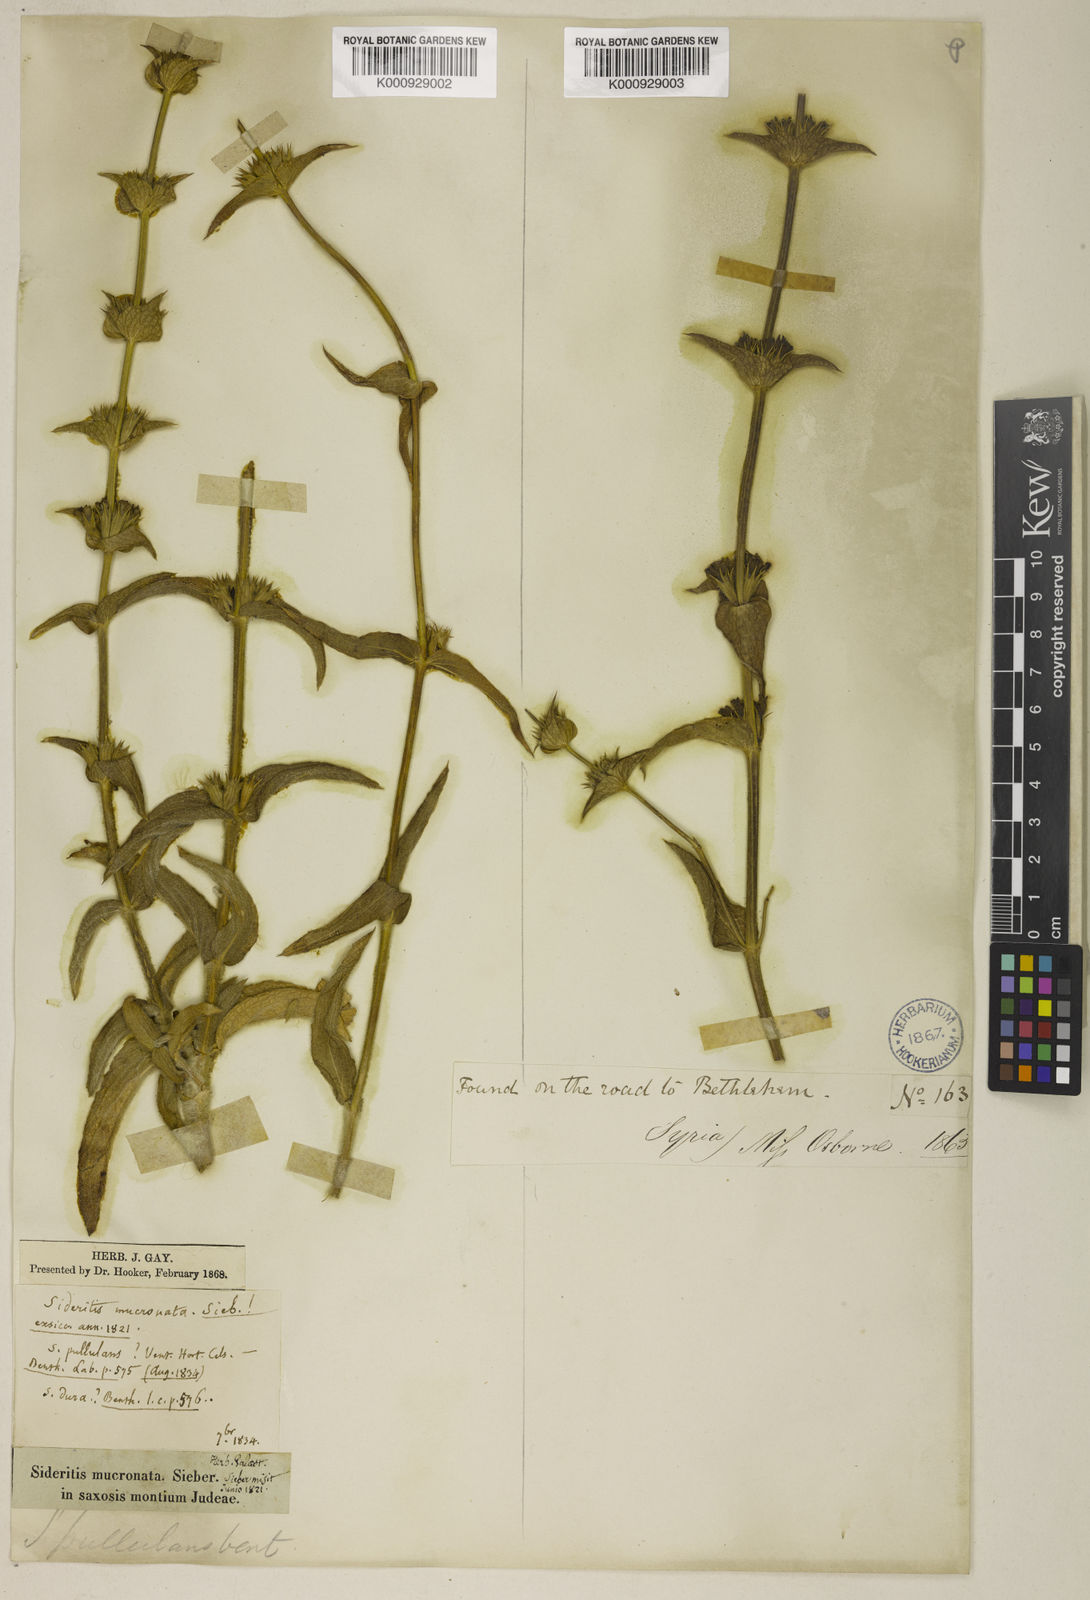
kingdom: Plantae
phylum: Tracheophyta
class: Magnoliopsida
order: Lamiales
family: Lamiaceae
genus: Sideritis
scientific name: Sideritis pullulans
